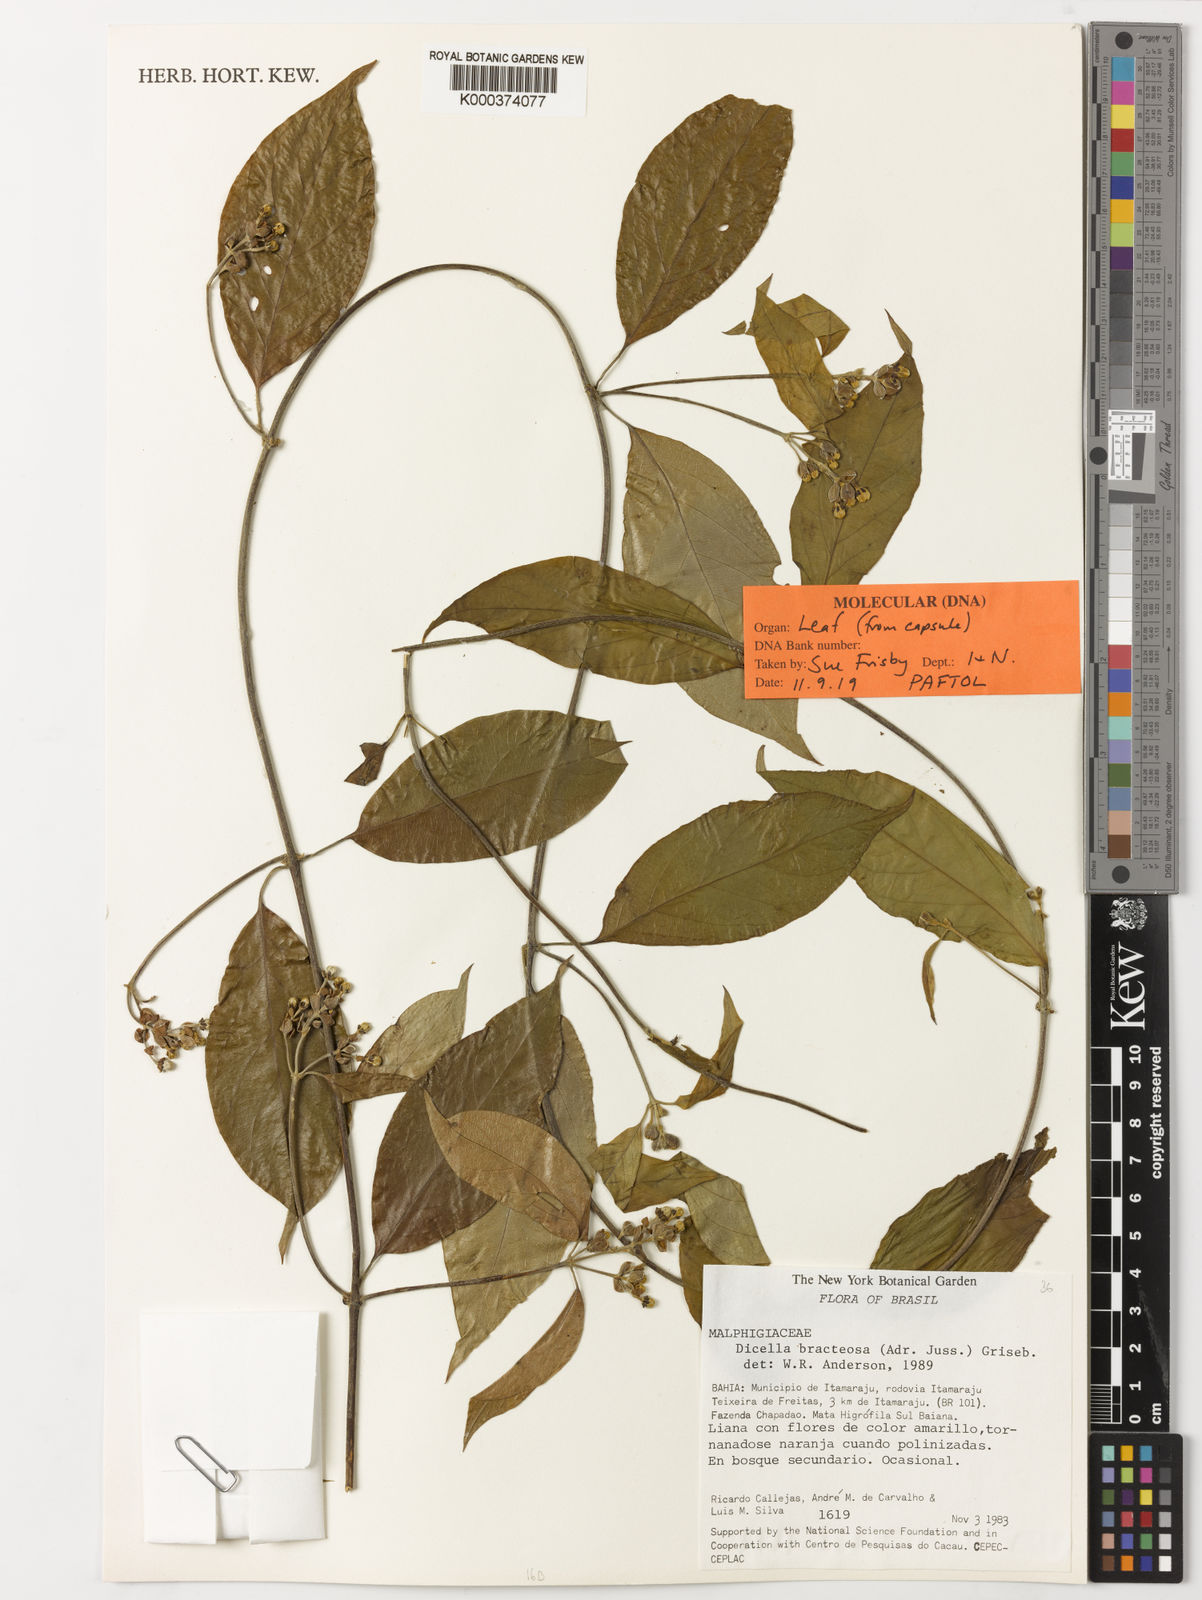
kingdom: Plantae
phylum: Tracheophyta
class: Magnoliopsida
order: Malpighiales
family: Malpighiaceae
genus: Dicella
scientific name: Dicella bracteosa
